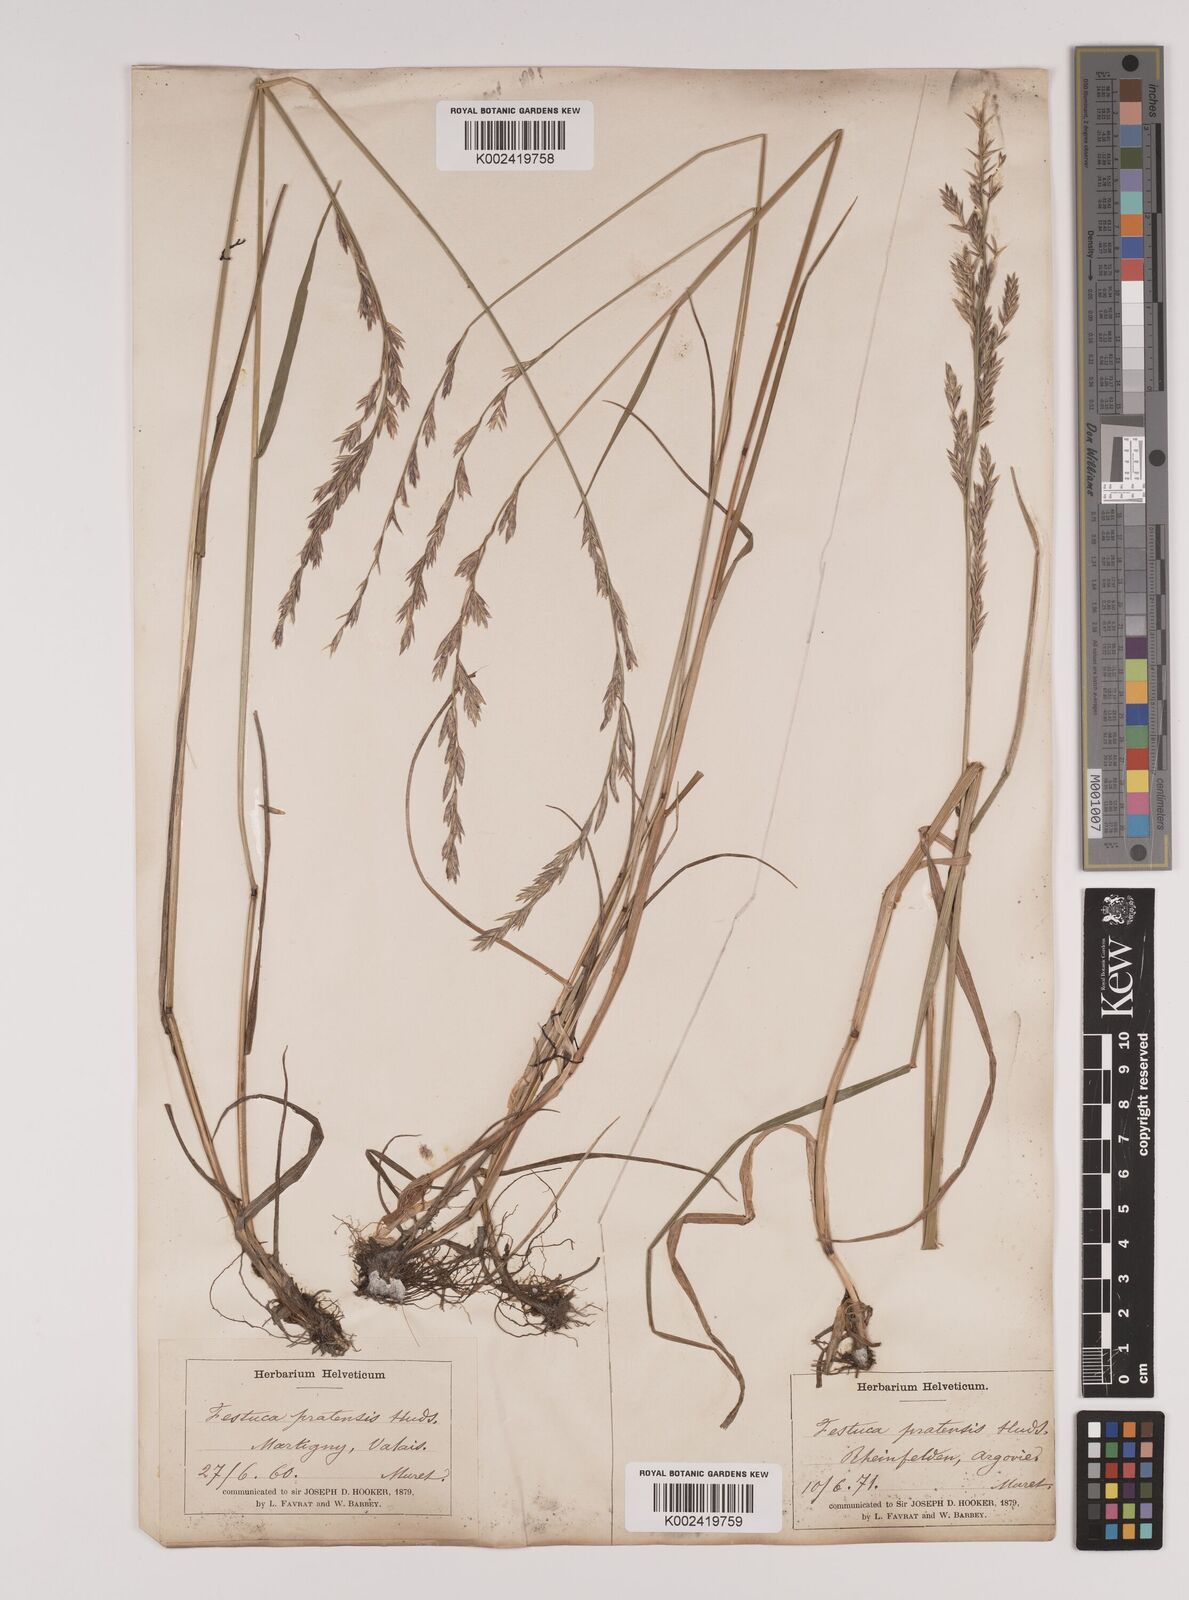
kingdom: Plantae
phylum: Tracheophyta
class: Liliopsida
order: Poales
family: Poaceae
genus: Lolium
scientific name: Lolium pratense
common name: Dover grass
